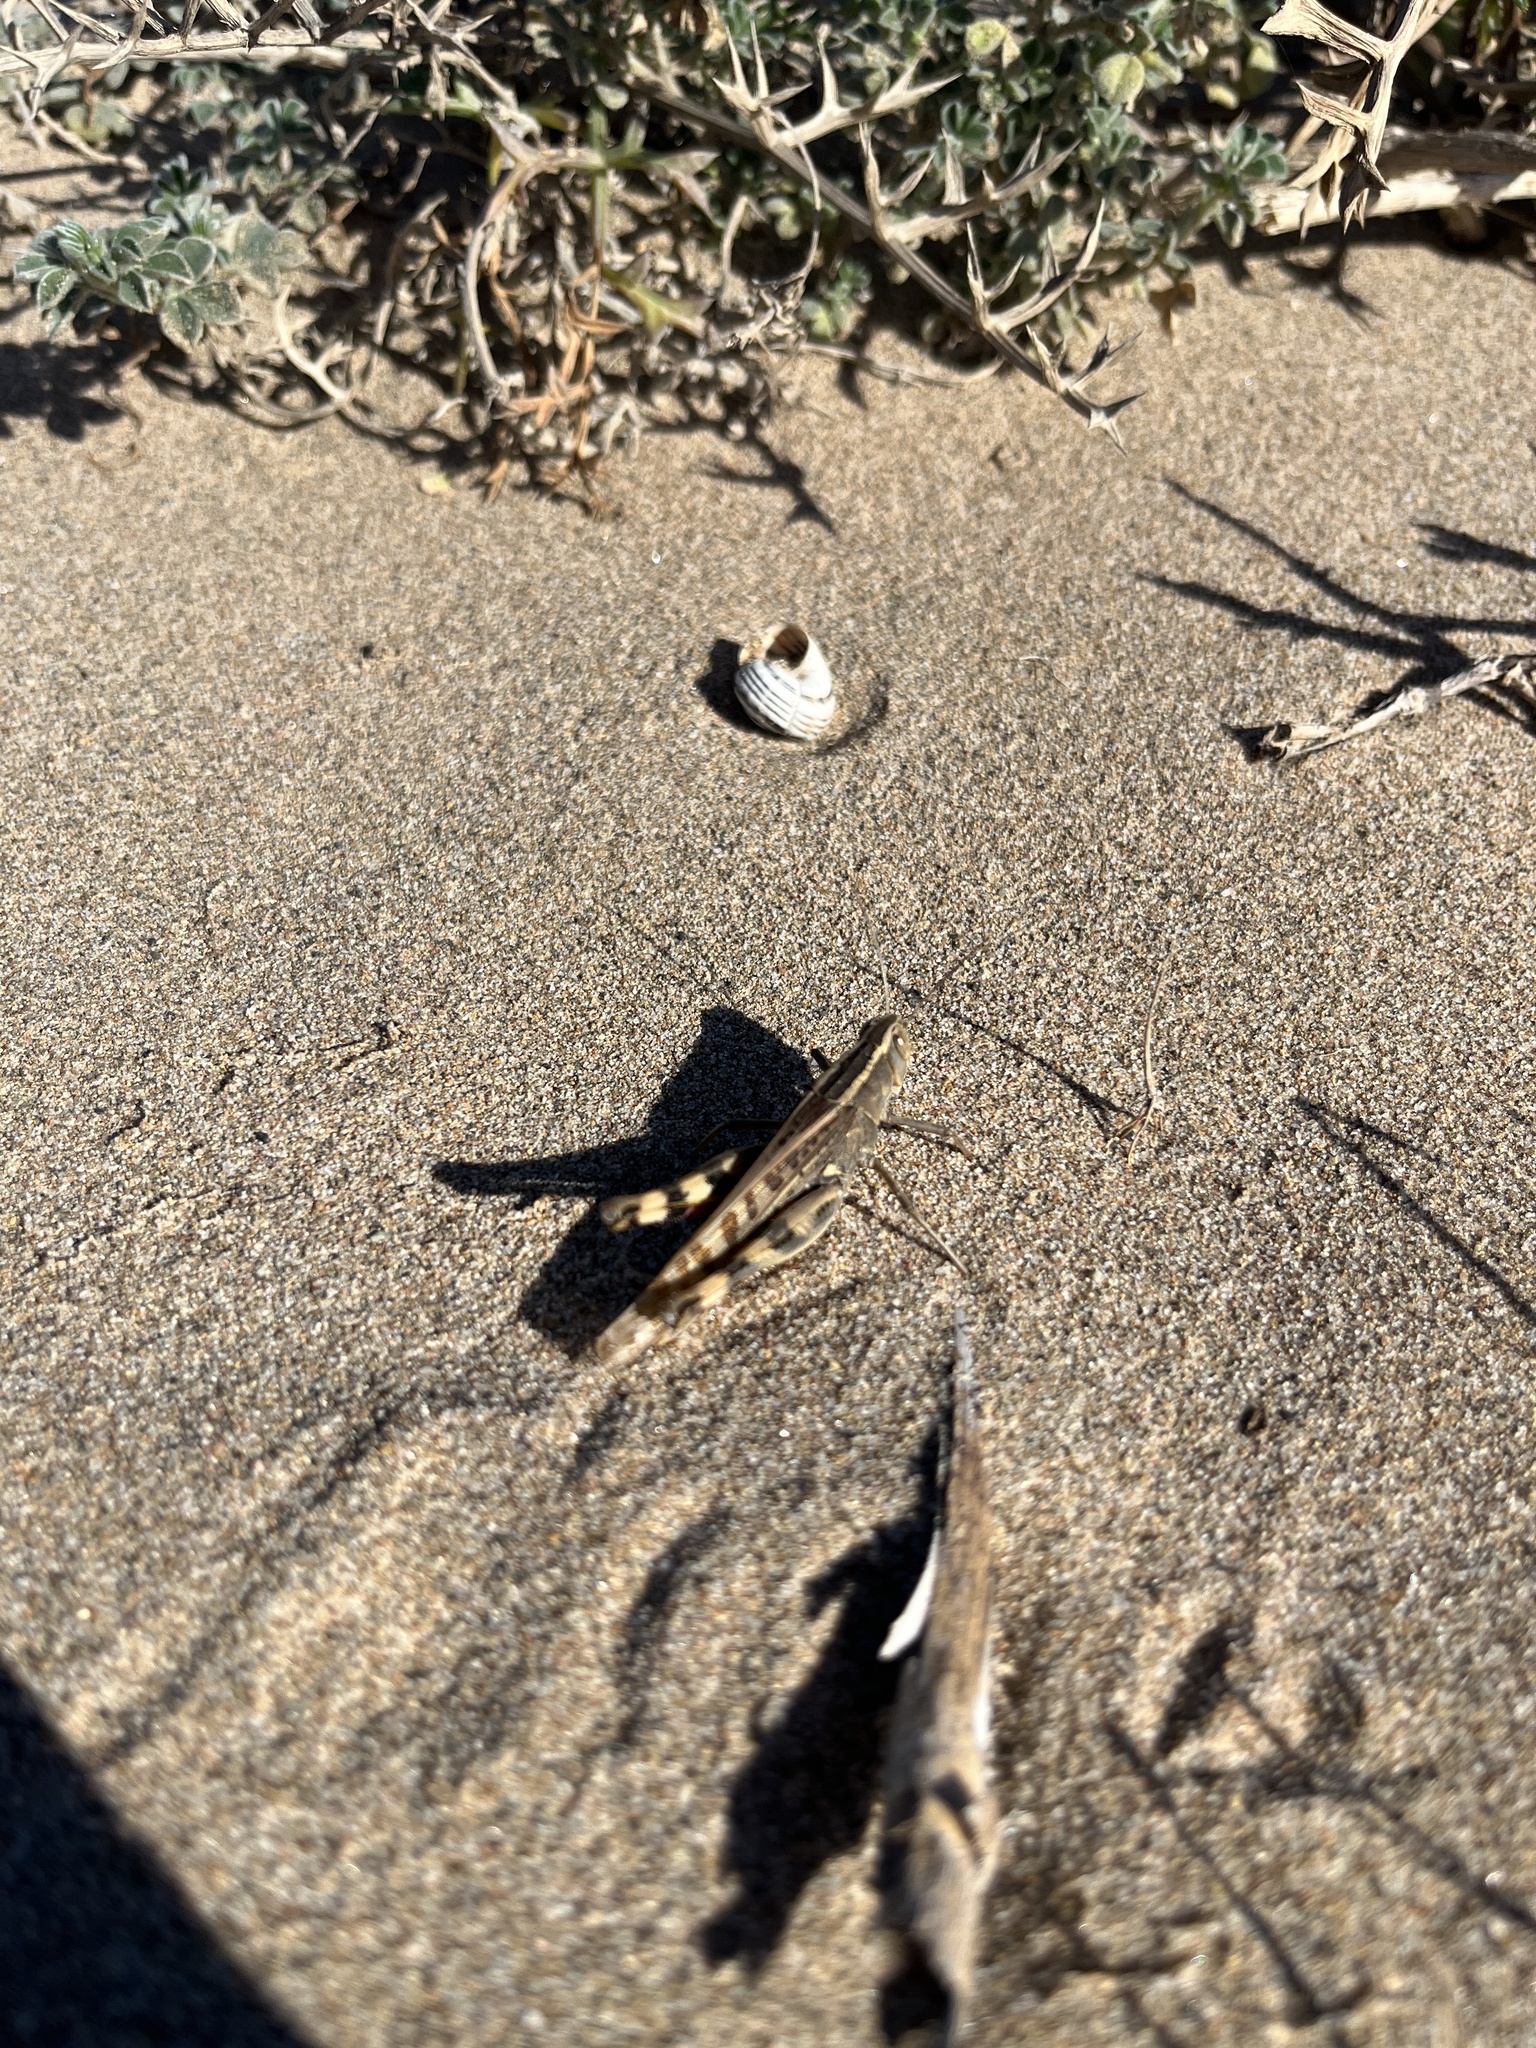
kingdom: Animalia
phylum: Arthropoda
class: Insecta
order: Orthoptera
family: Acrididae
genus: Heteracris
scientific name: Heteracris littoralis
